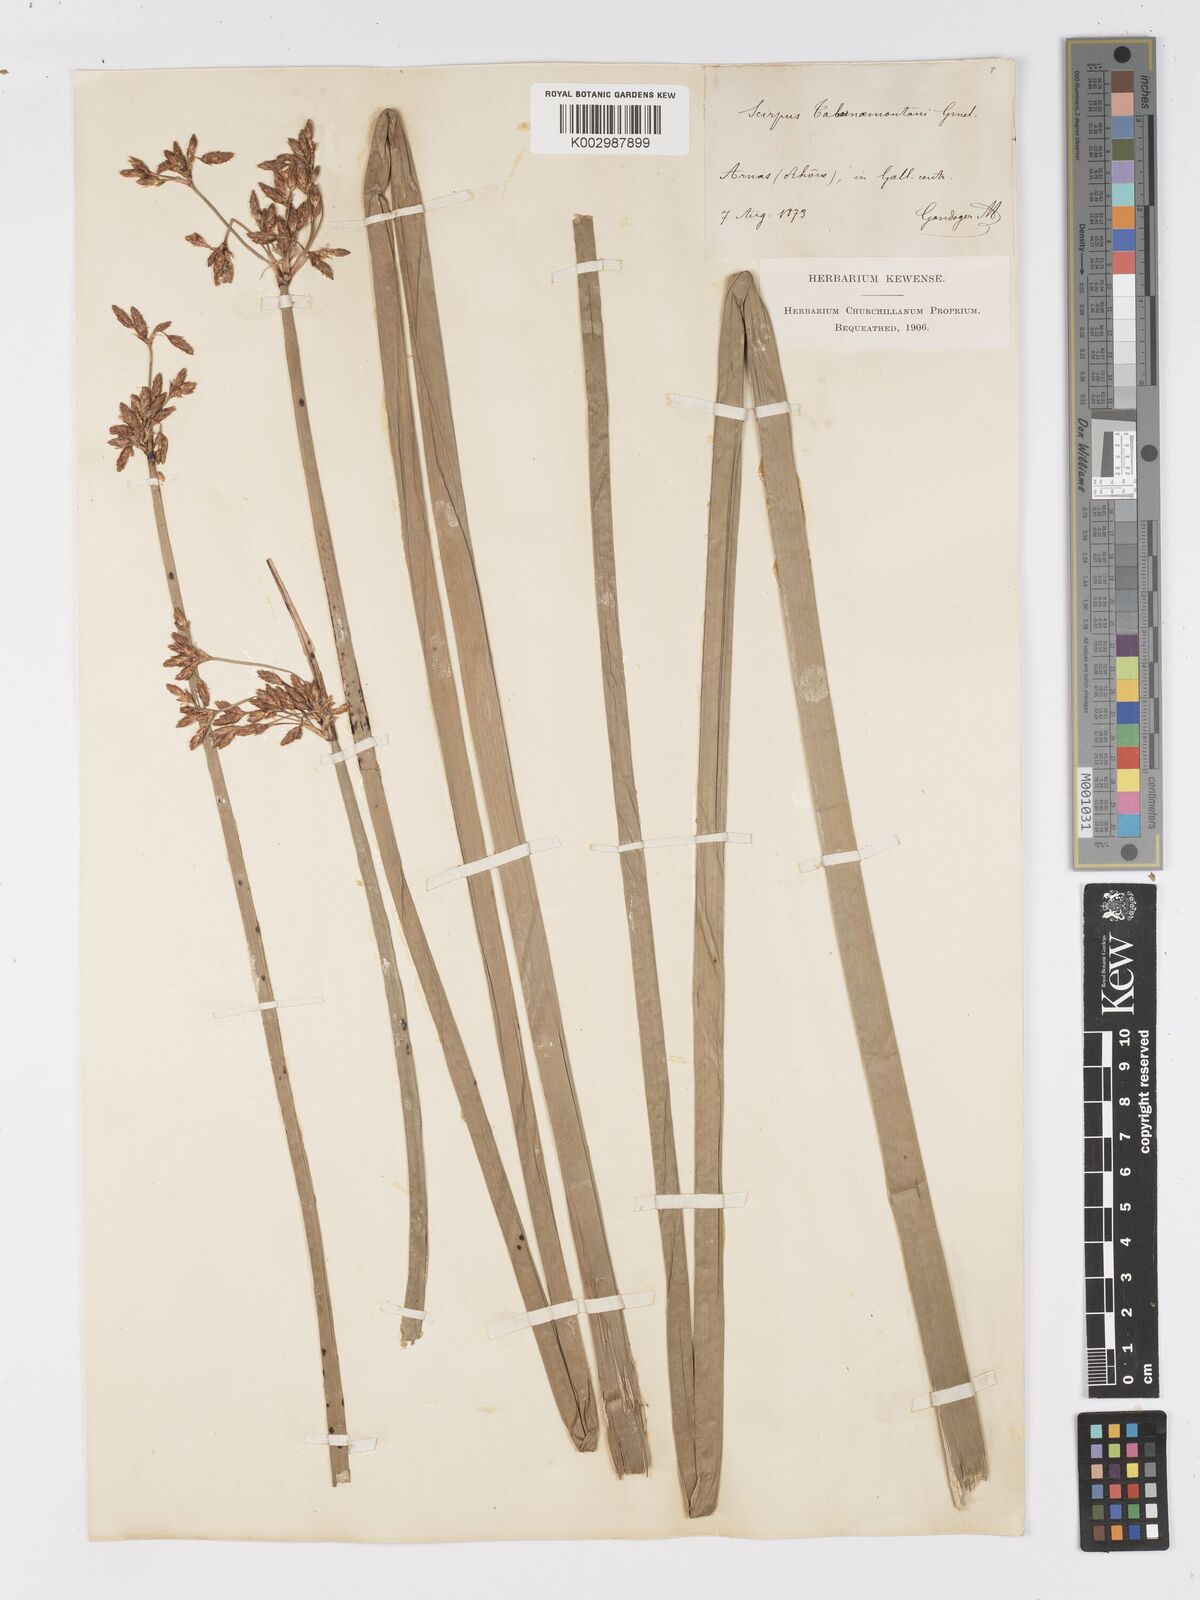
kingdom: Plantae
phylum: Tracheophyta
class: Liliopsida
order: Poales
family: Cyperaceae
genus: Schoenoplectus
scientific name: Schoenoplectus tabernaemontani
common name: Grey club-rush
